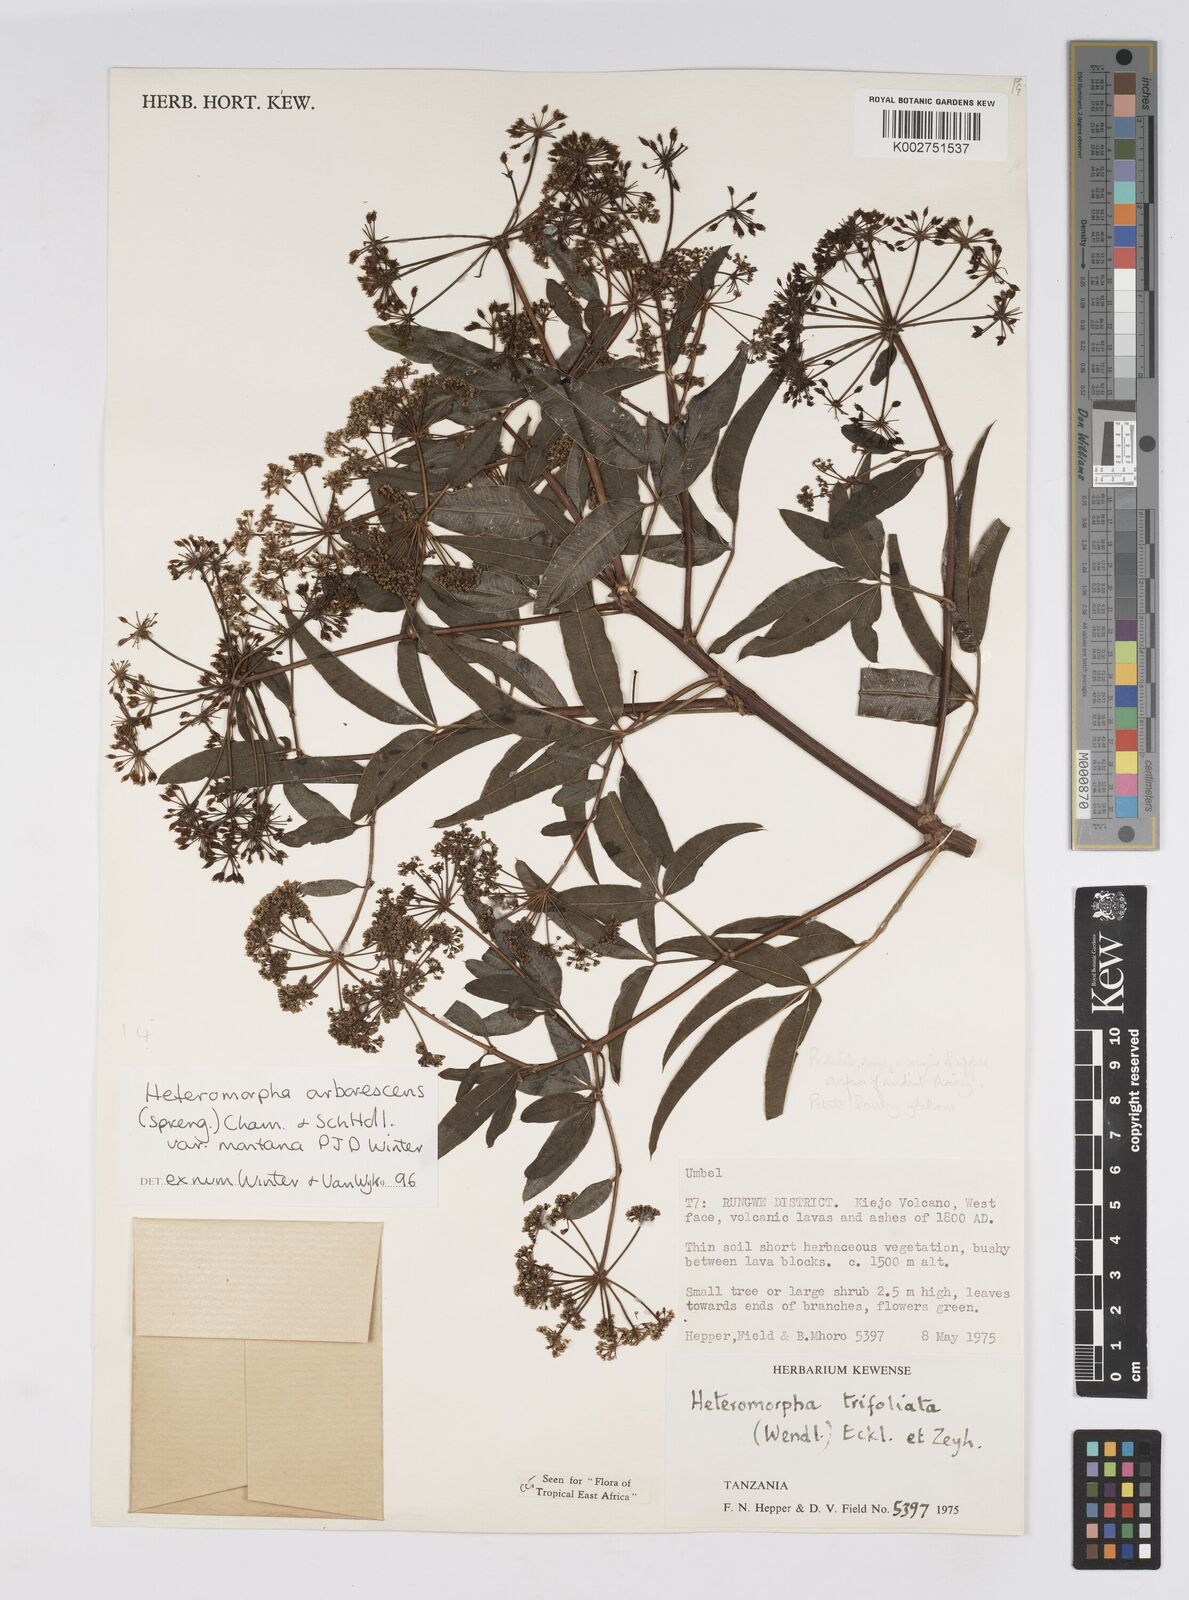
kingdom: Plantae
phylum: Tracheophyta
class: Magnoliopsida
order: Apiales
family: Apiaceae
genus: Heteromorpha
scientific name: Heteromorpha montana
